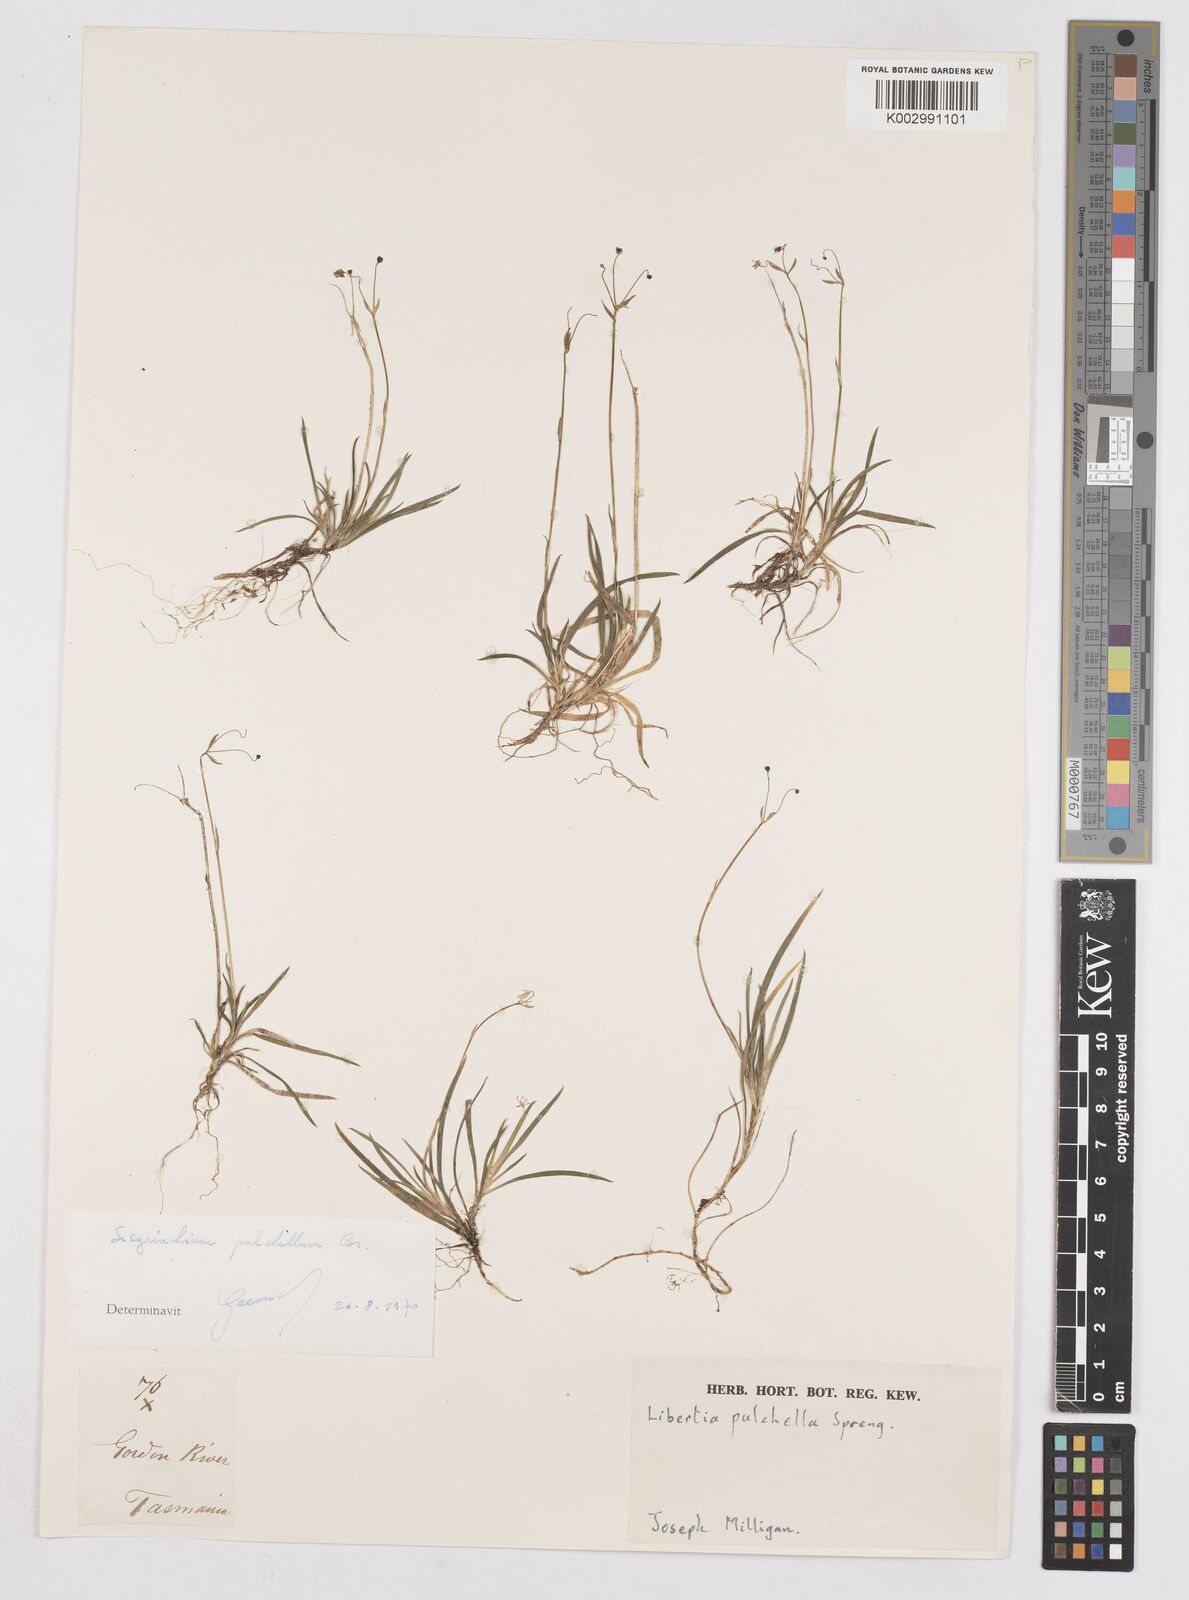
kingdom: Plantae
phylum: Tracheophyta
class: Liliopsida
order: Asparagales
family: Iridaceae
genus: Libertia
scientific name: Libertia pulchella
